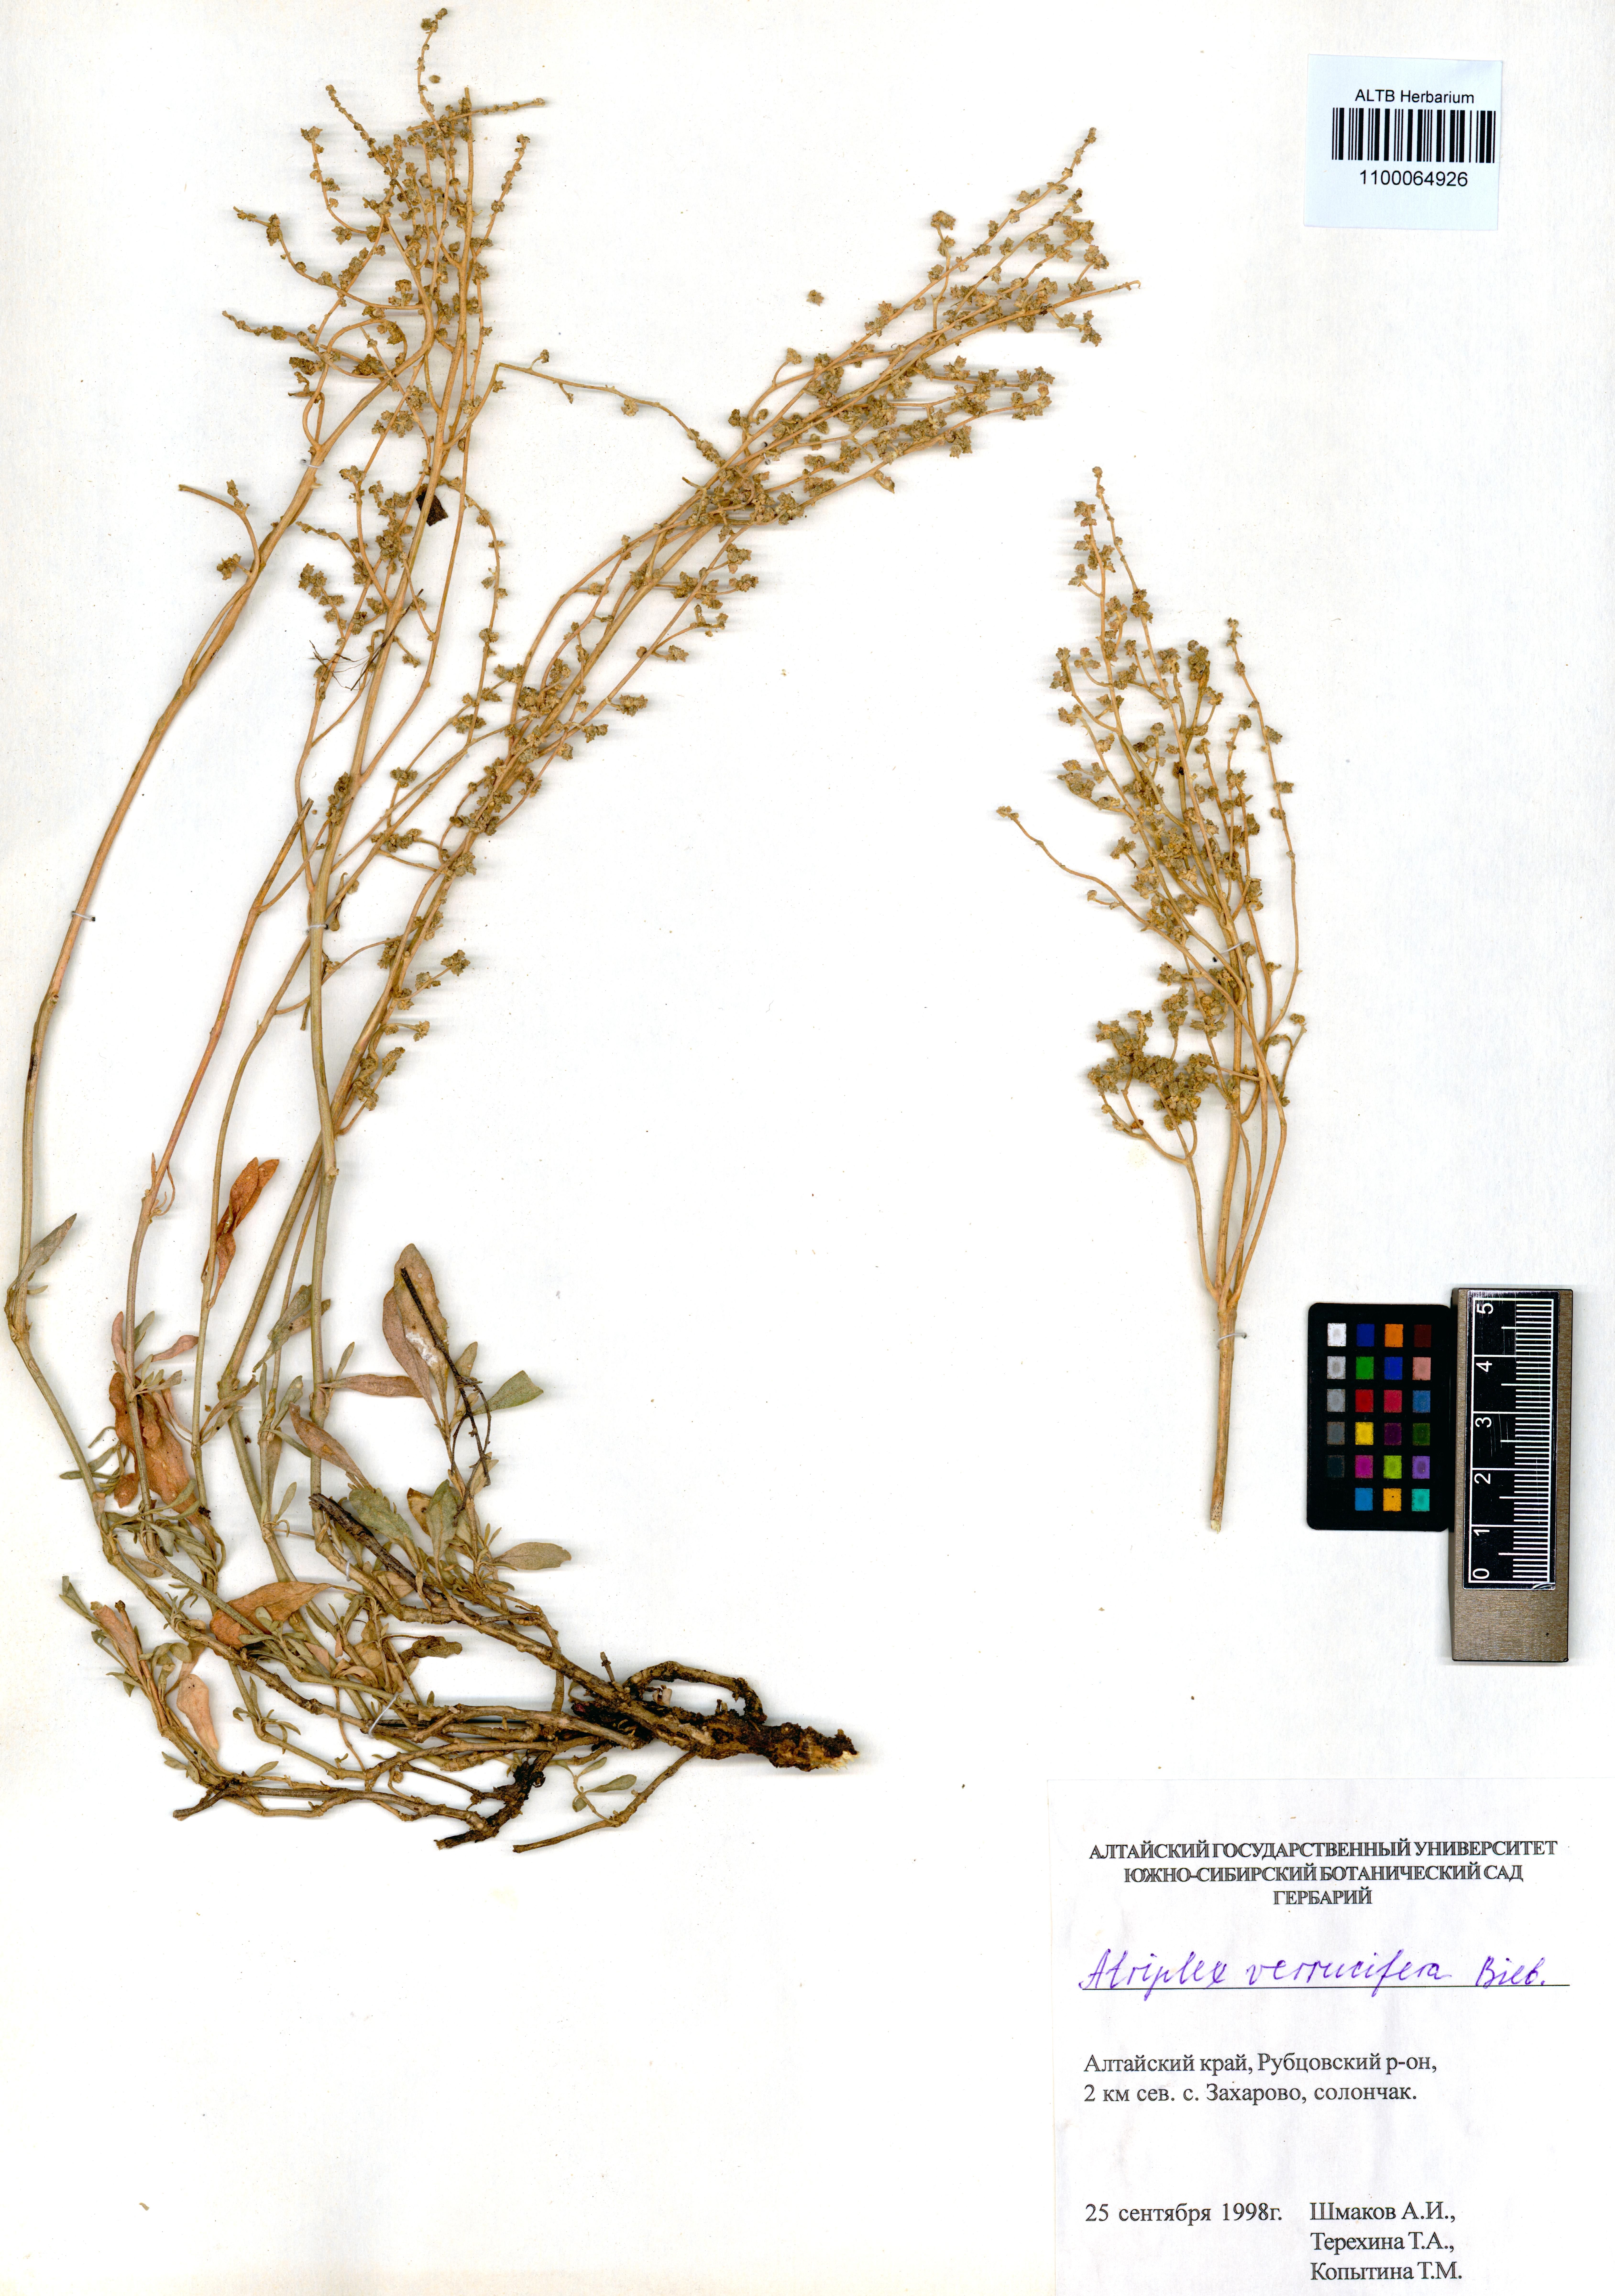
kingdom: Plantae
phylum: Tracheophyta
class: Magnoliopsida
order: Caryophyllales
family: Amaranthaceae
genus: Halimione
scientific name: Halimione verrucifera
